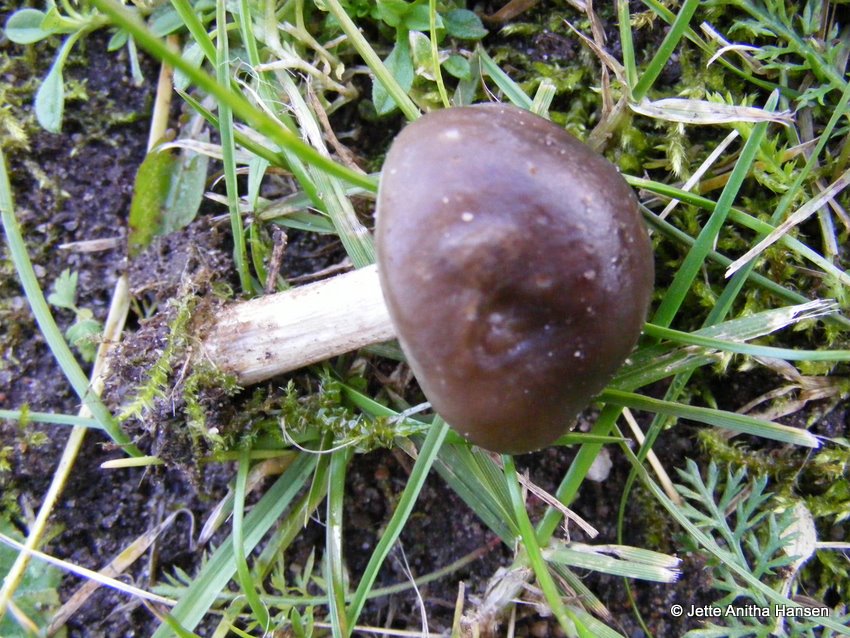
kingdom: Fungi
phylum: Basidiomycota
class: Agaricomycetes
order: Agaricales
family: Tricholomataceae
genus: Melanoleuca
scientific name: Melanoleuca polioleuca
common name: almindelig munkehat
